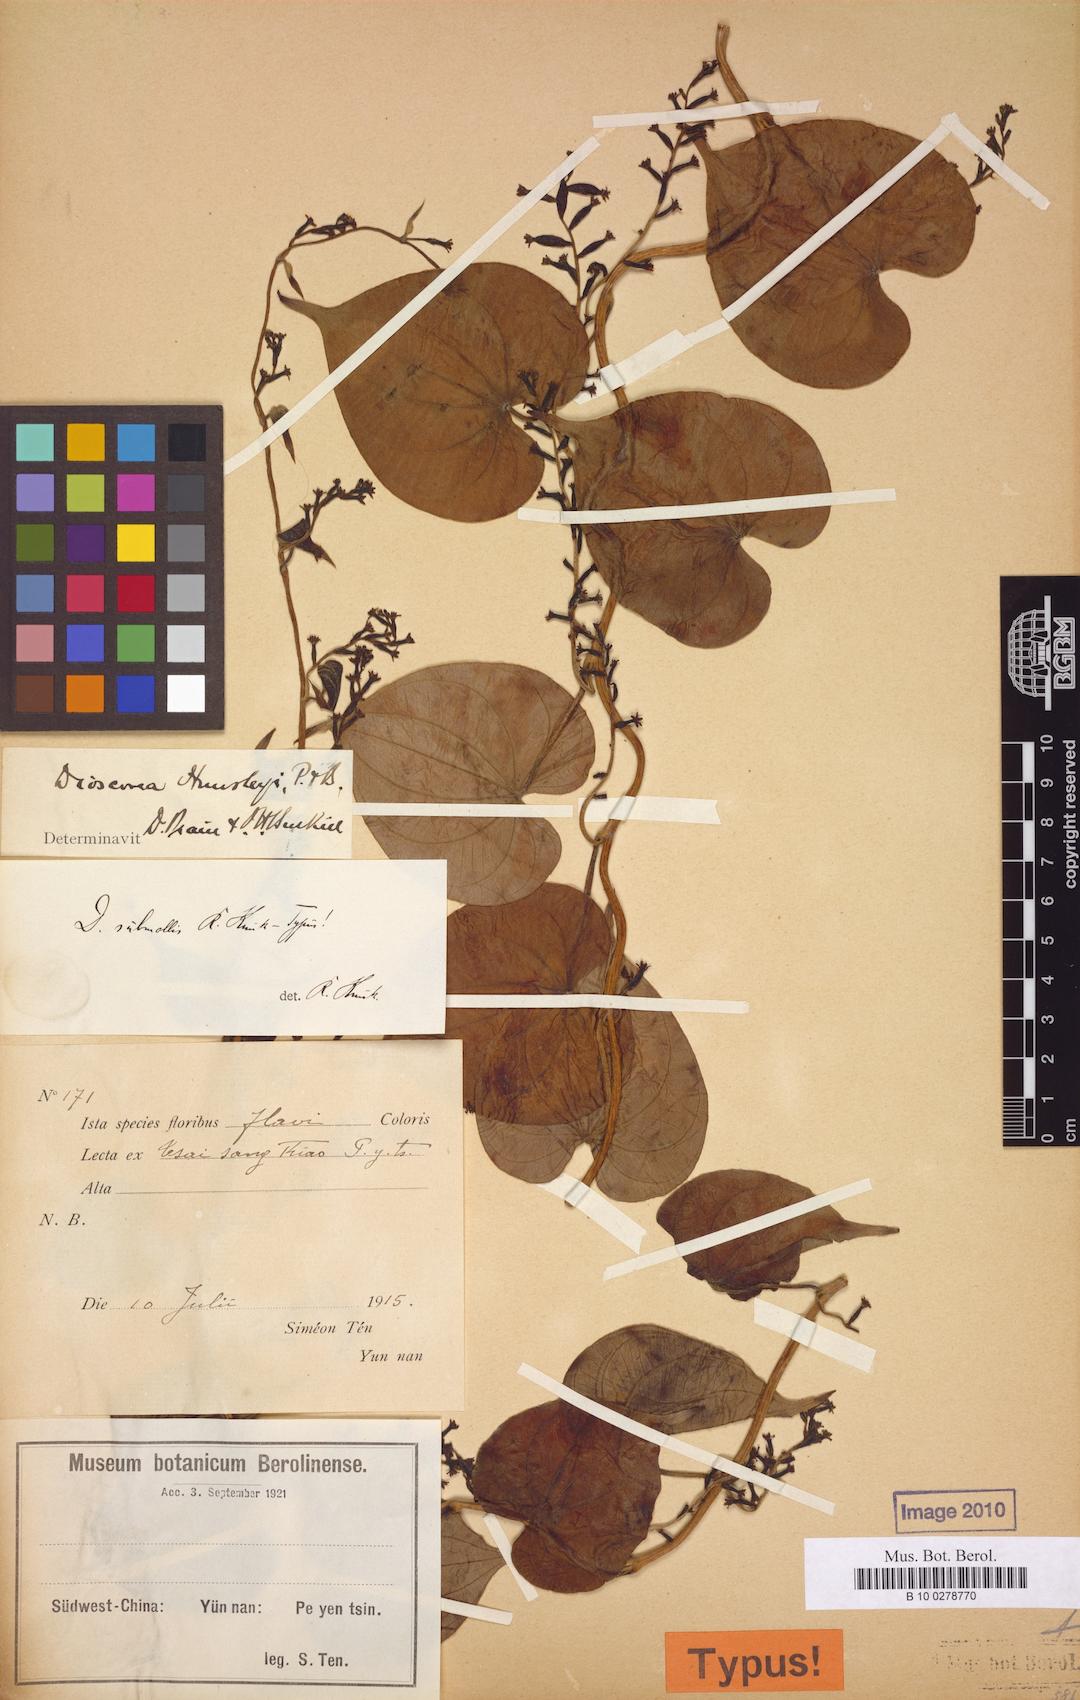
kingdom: Plantae
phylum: Tracheophyta
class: Liliopsida
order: Dioscoreales
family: Dioscoreaceae
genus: Dioscorea
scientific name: Dioscorea subcalva
